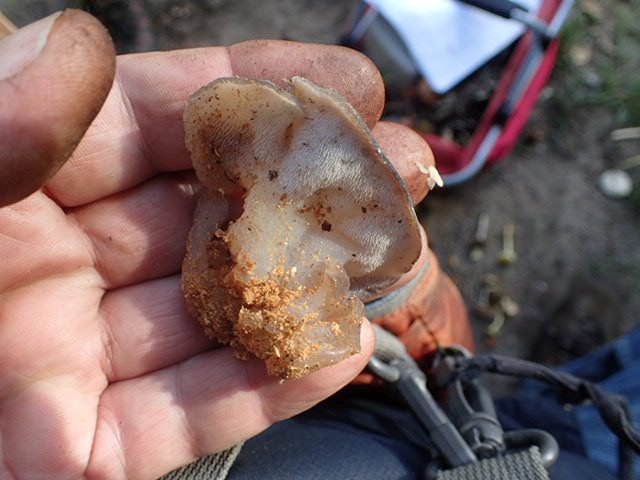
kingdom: Fungi
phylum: Basidiomycota
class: Agaricomycetes
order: Auriculariales
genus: Pseudohydnum
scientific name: Pseudohydnum gelatinosum
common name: bævretand
